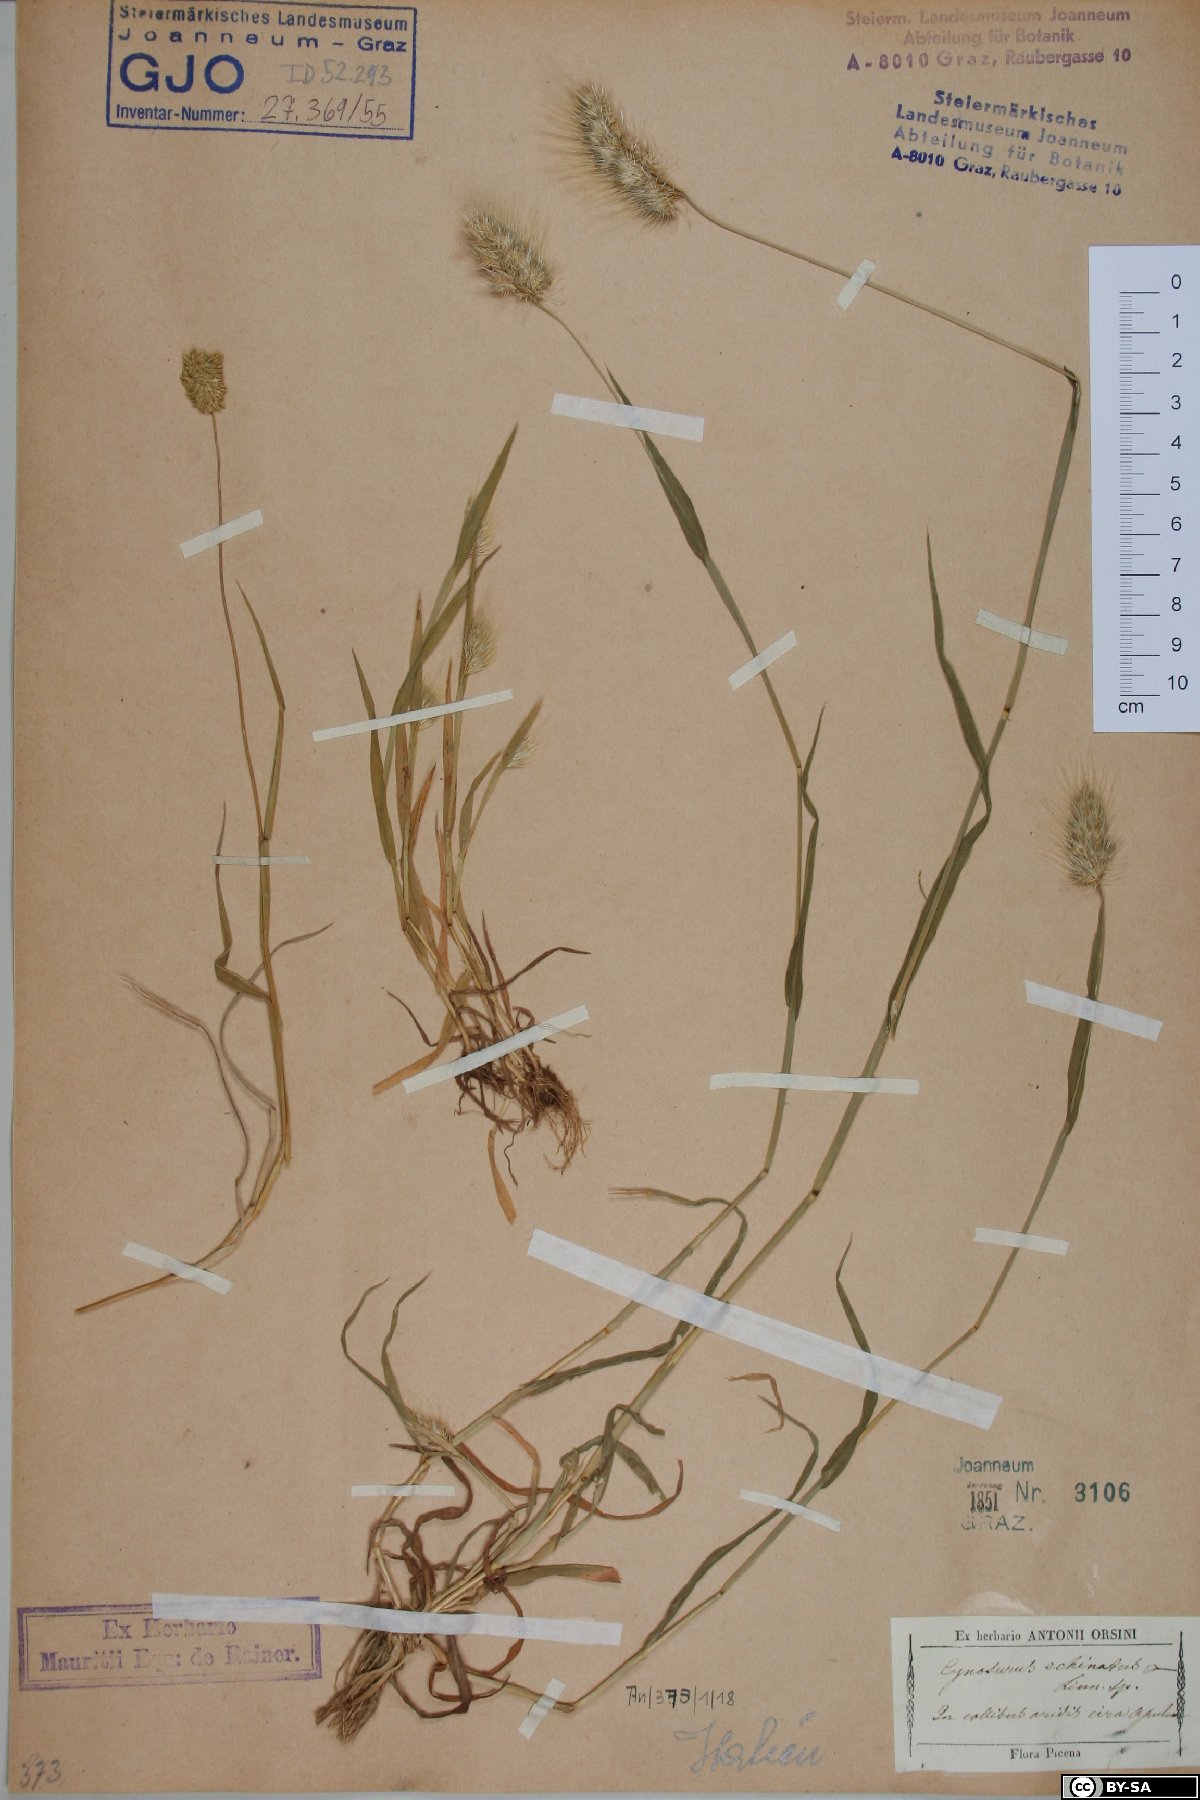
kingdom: Plantae
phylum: Tracheophyta
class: Liliopsida
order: Poales
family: Poaceae
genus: Cynosurus
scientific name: Cynosurus echinatus
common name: Rough dog's-tail
